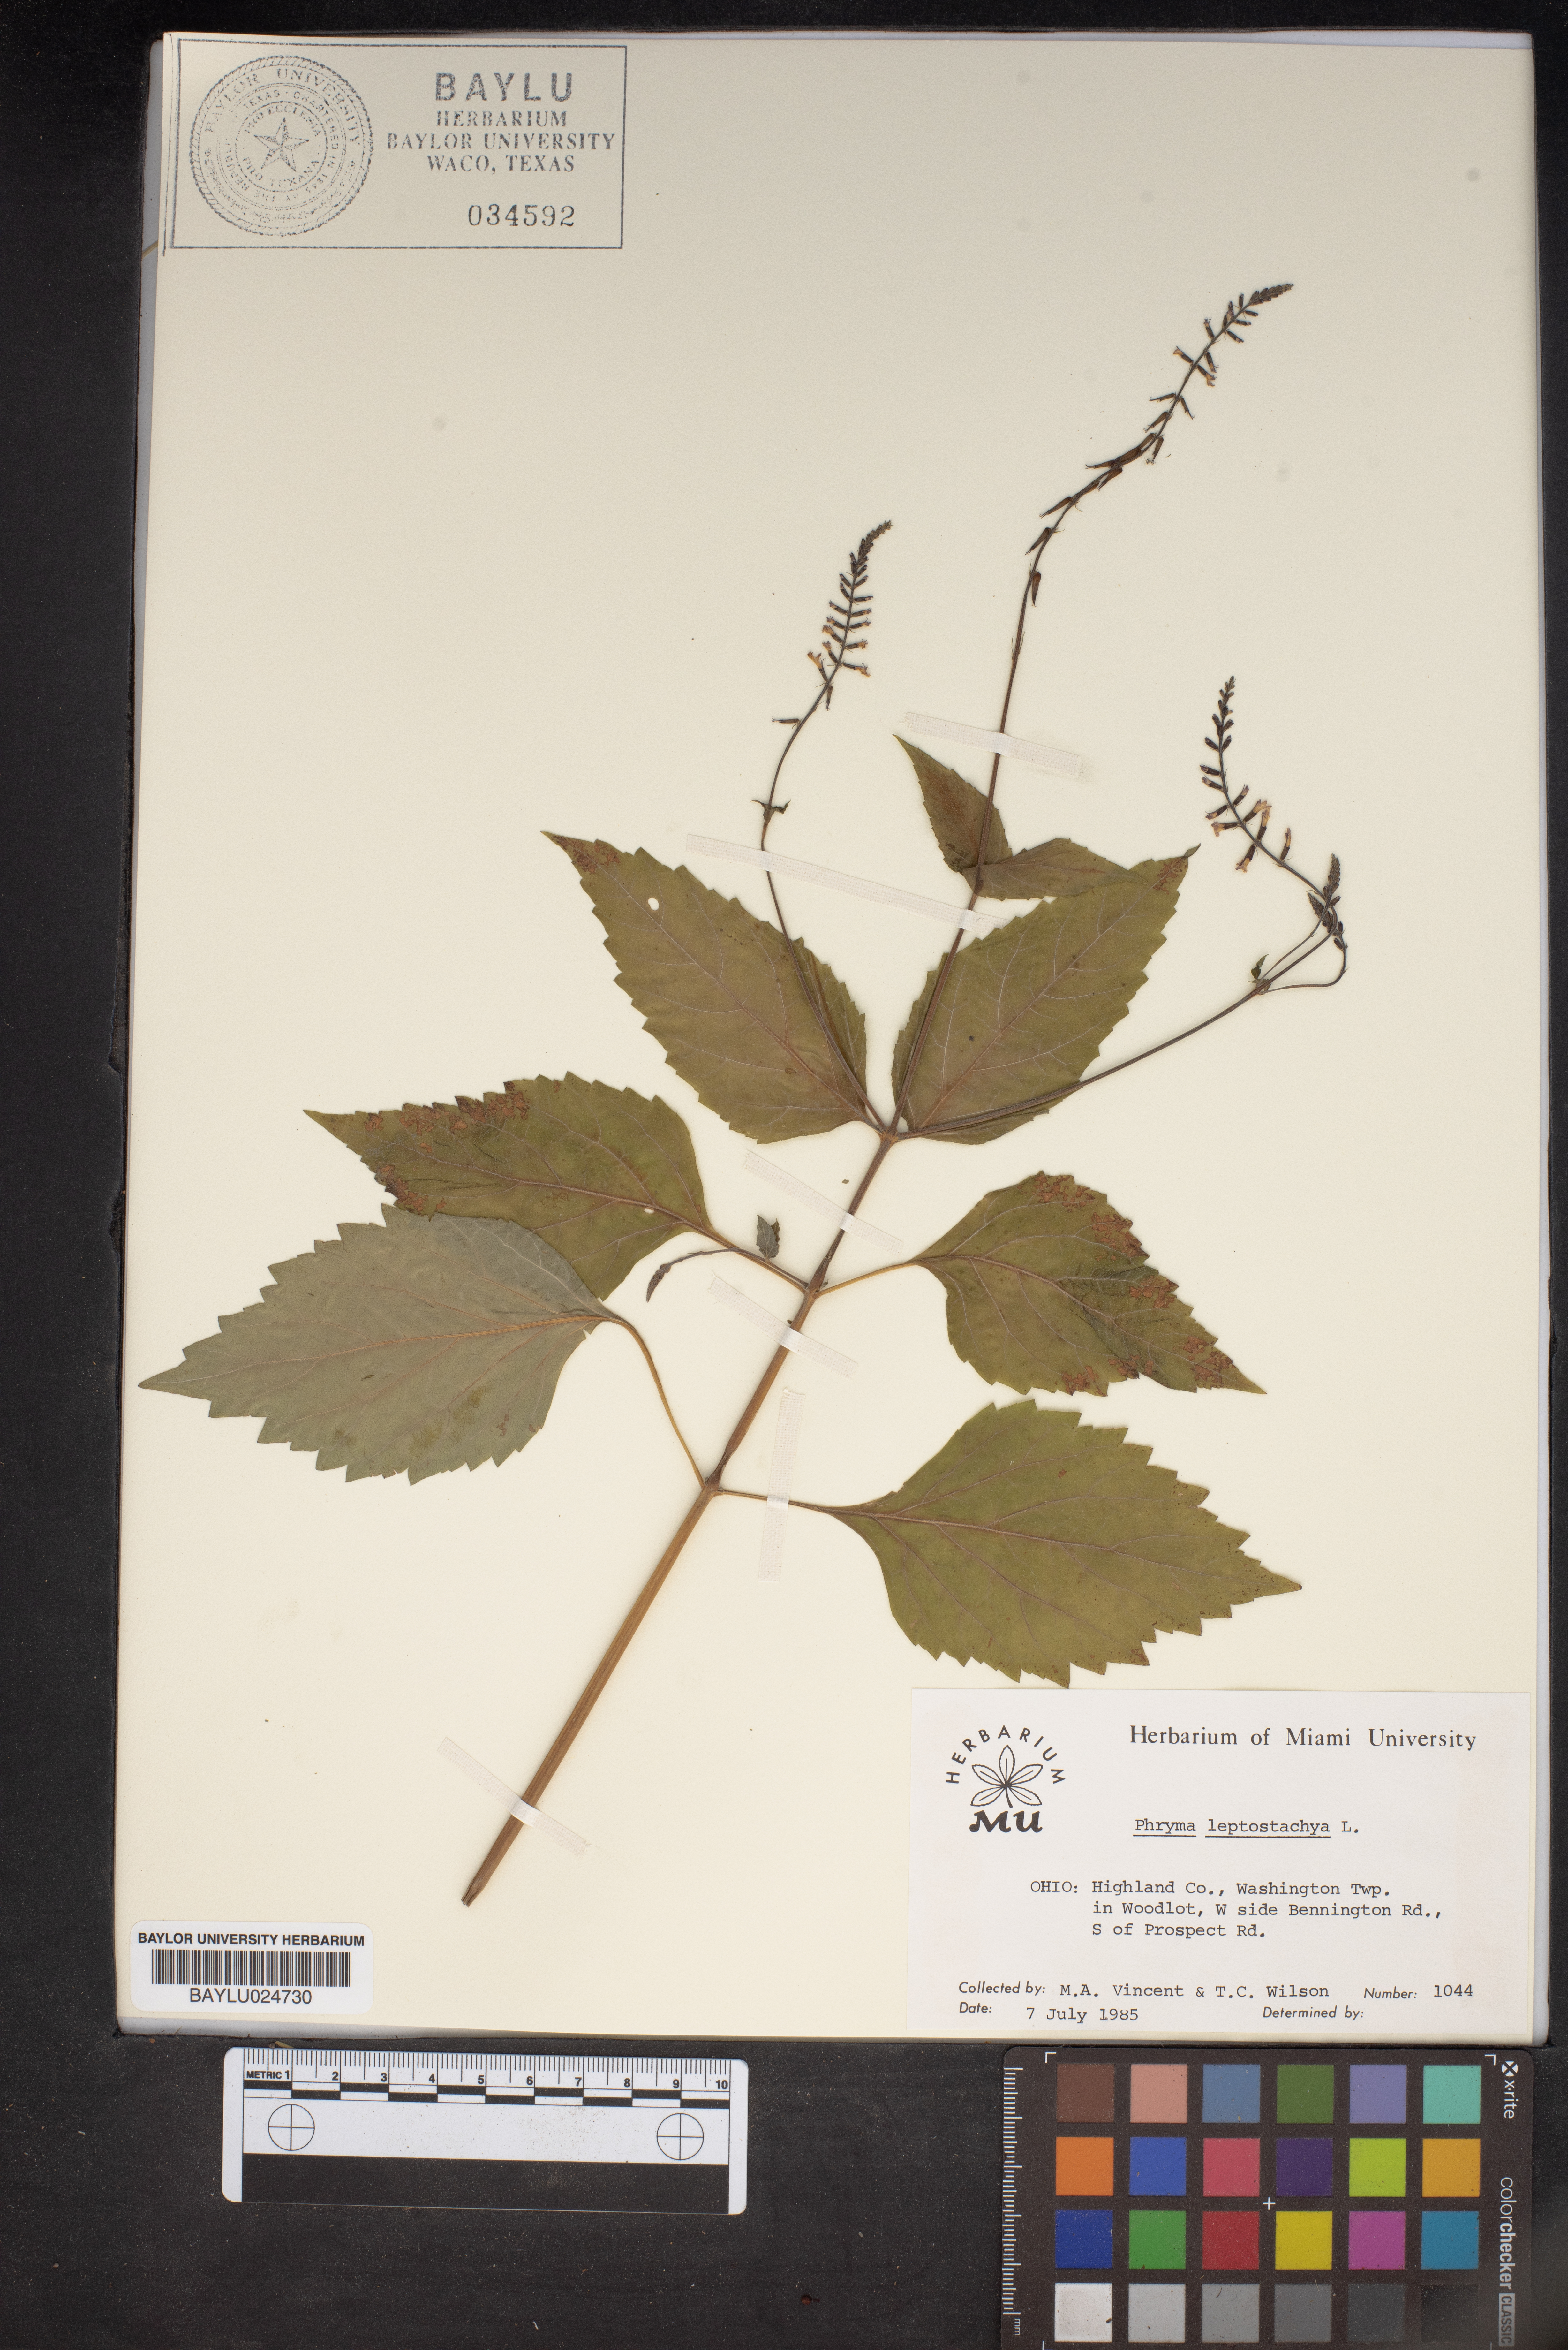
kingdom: Plantae
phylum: Tracheophyta
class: Magnoliopsida
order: Lamiales
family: Phrymaceae
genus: Phryma
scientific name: Phryma leptostachya
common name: American lopseed
